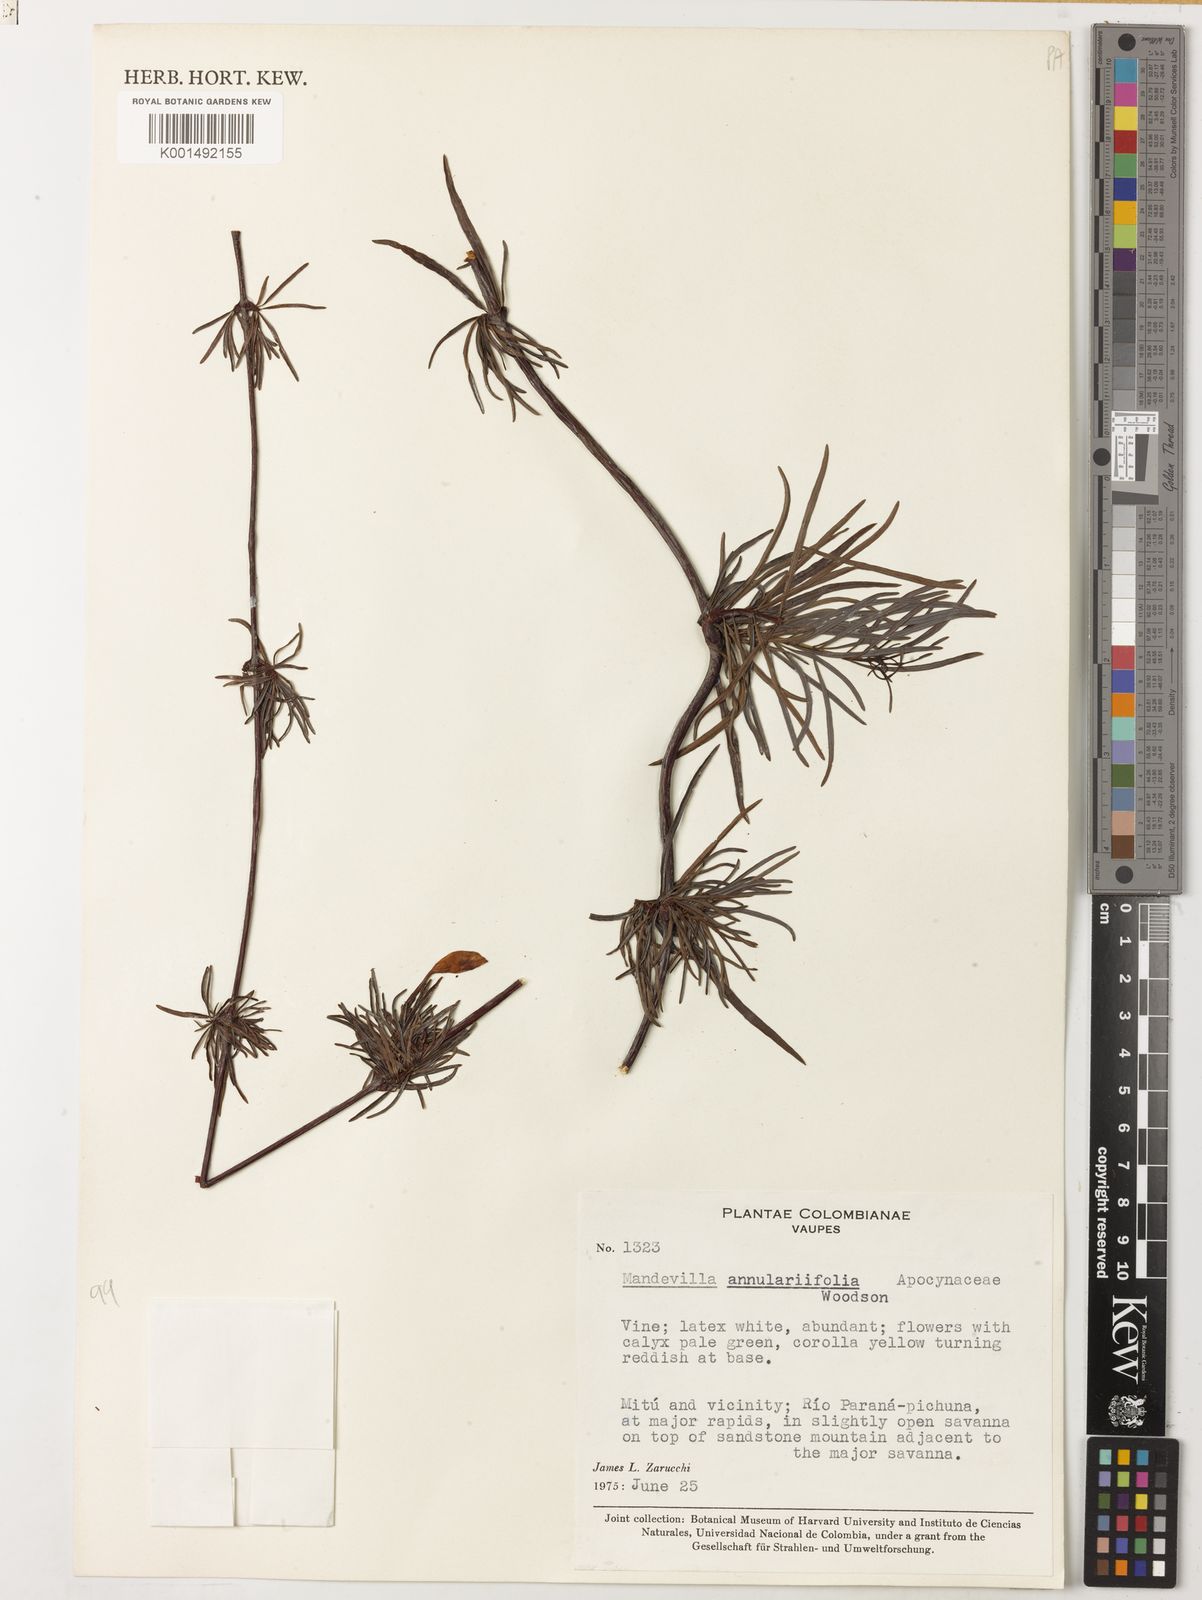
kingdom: Plantae
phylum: Tracheophyta
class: Magnoliopsida
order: Gentianales
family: Apocynaceae
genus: Mandevilla
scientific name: Mandevilla annulariifolia
